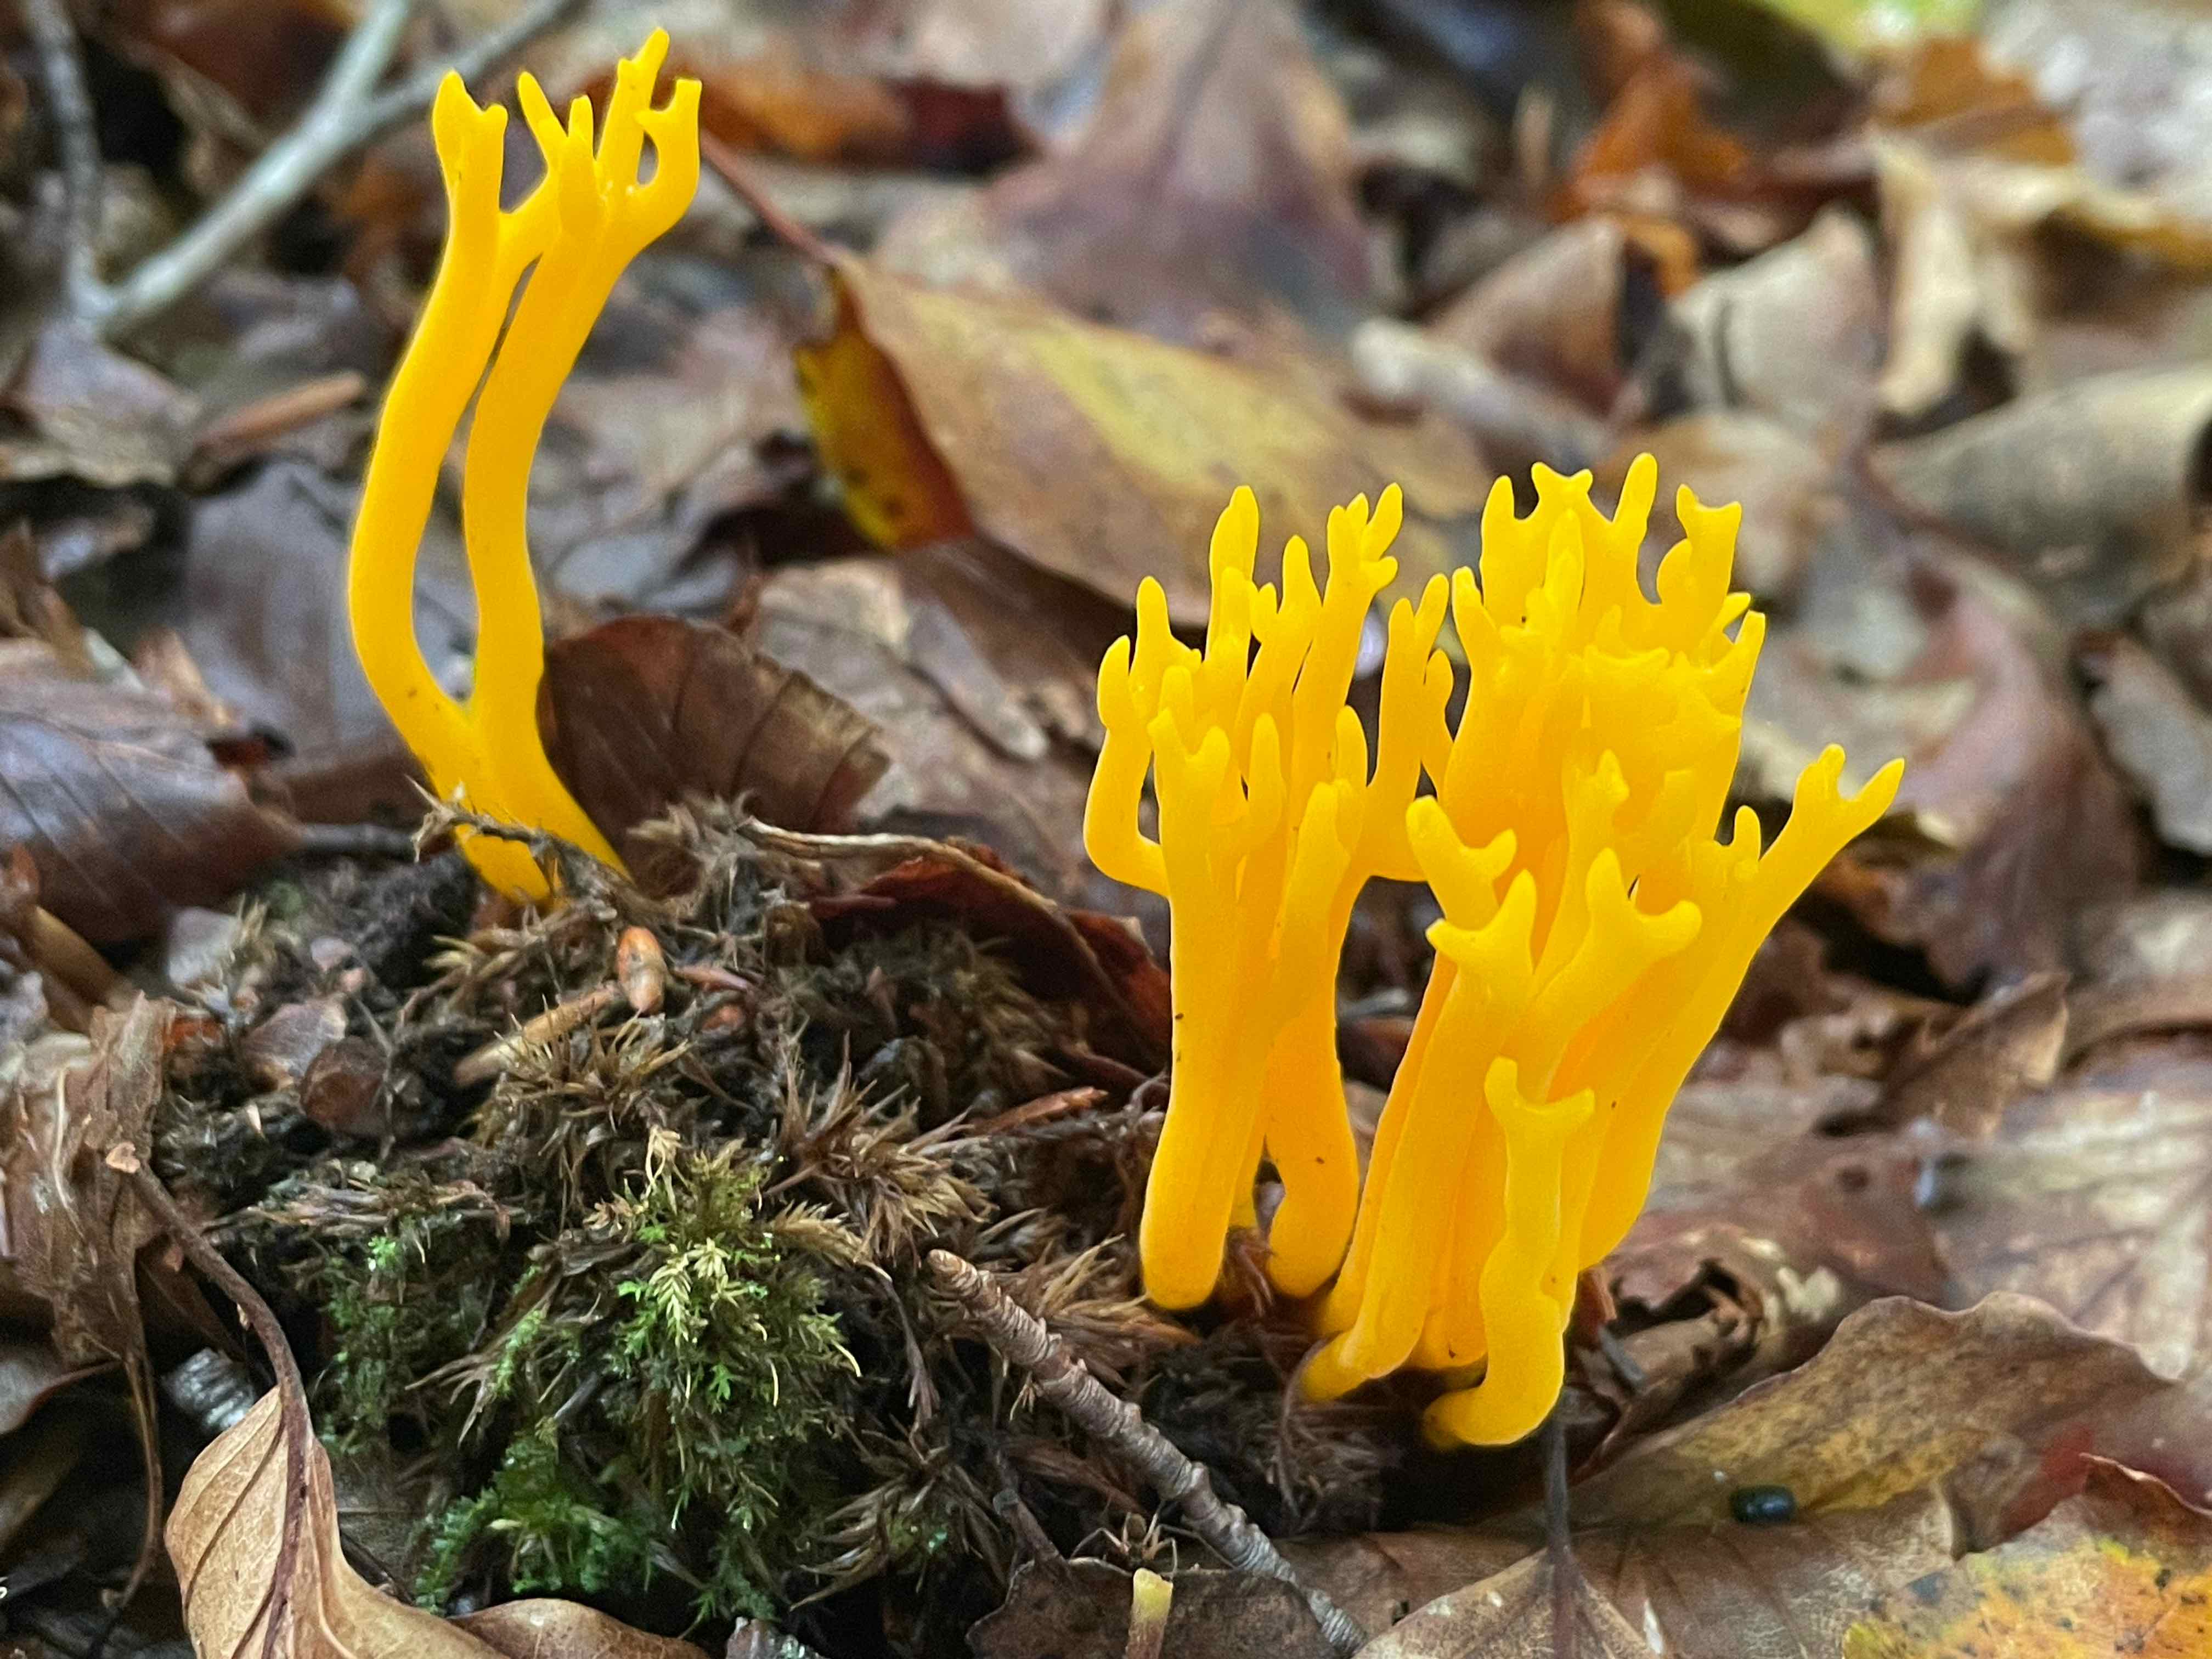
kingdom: Fungi
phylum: Basidiomycota
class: Dacrymycetes
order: Dacrymycetales
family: Dacrymycetaceae
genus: Calocera
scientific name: Calocera viscosa
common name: almindelig guldgaffel
